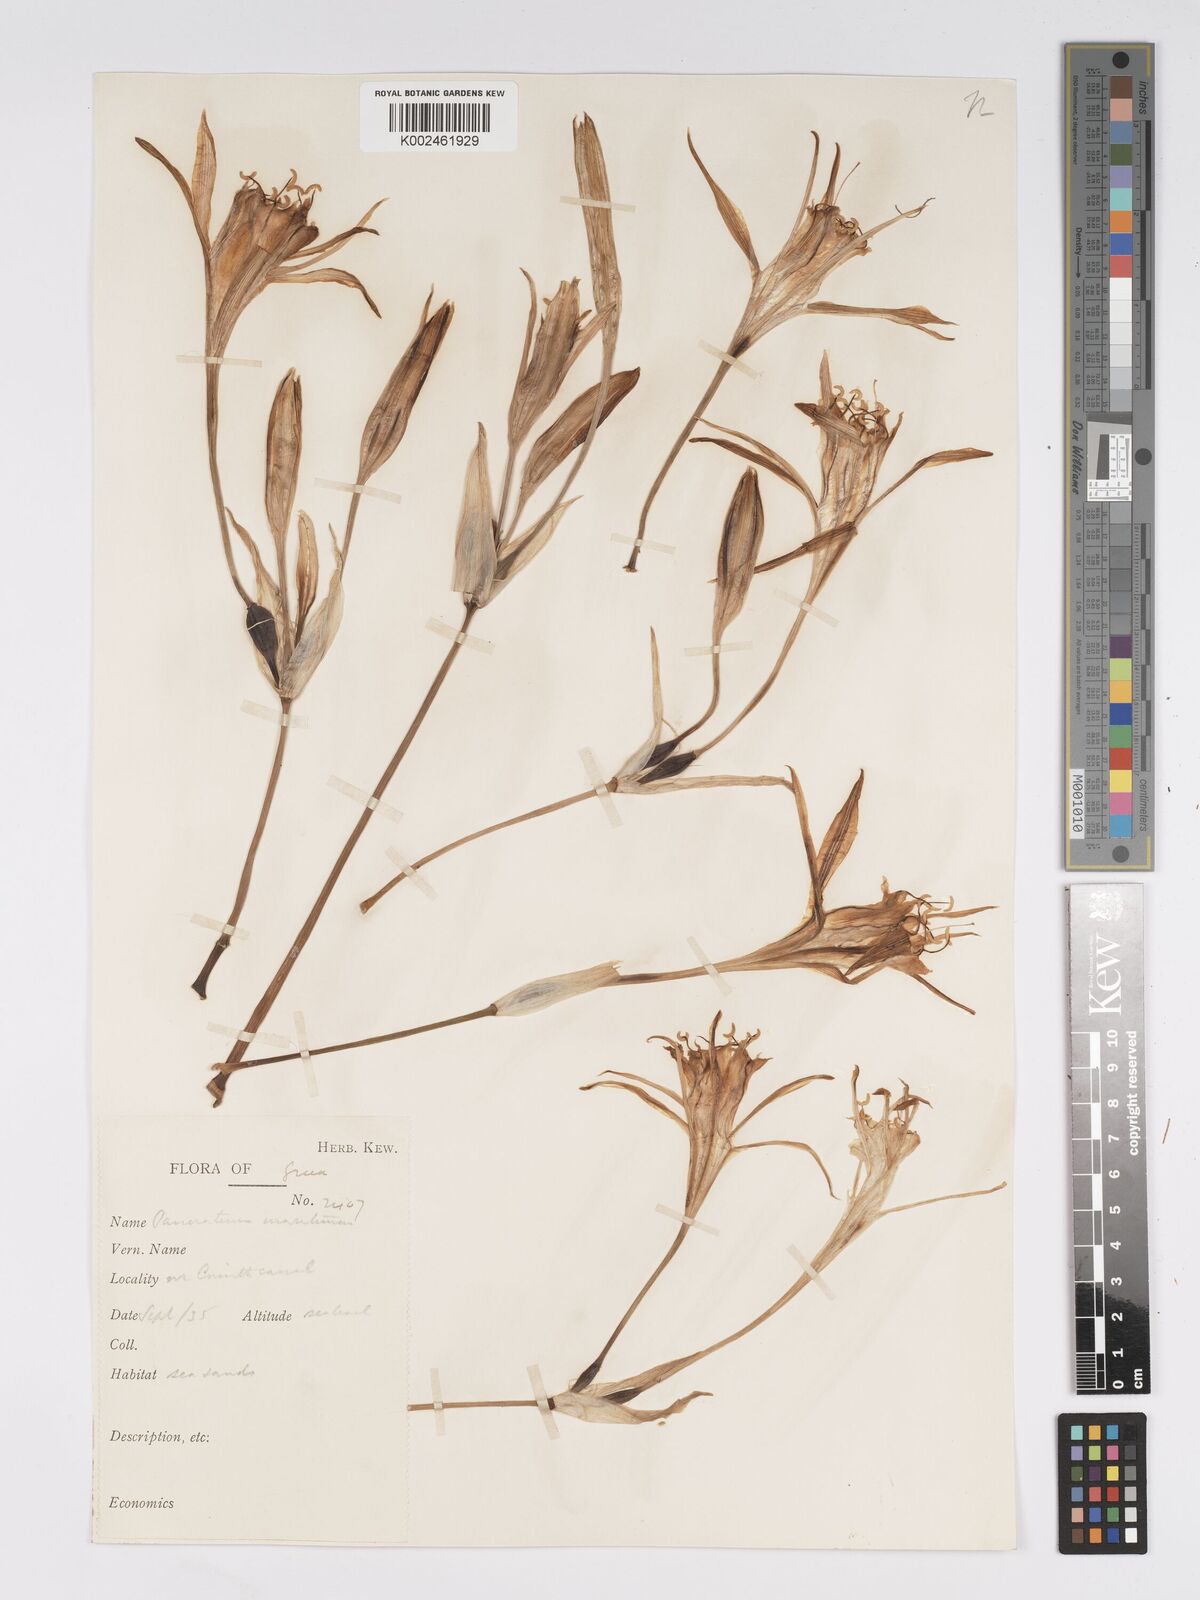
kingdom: Plantae
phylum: Tracheophyta
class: Liliopsida
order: Asparagales
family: Amaryllidaceae
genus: Pancratium
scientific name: Pancratium maritimum
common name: Sea-daffodil
